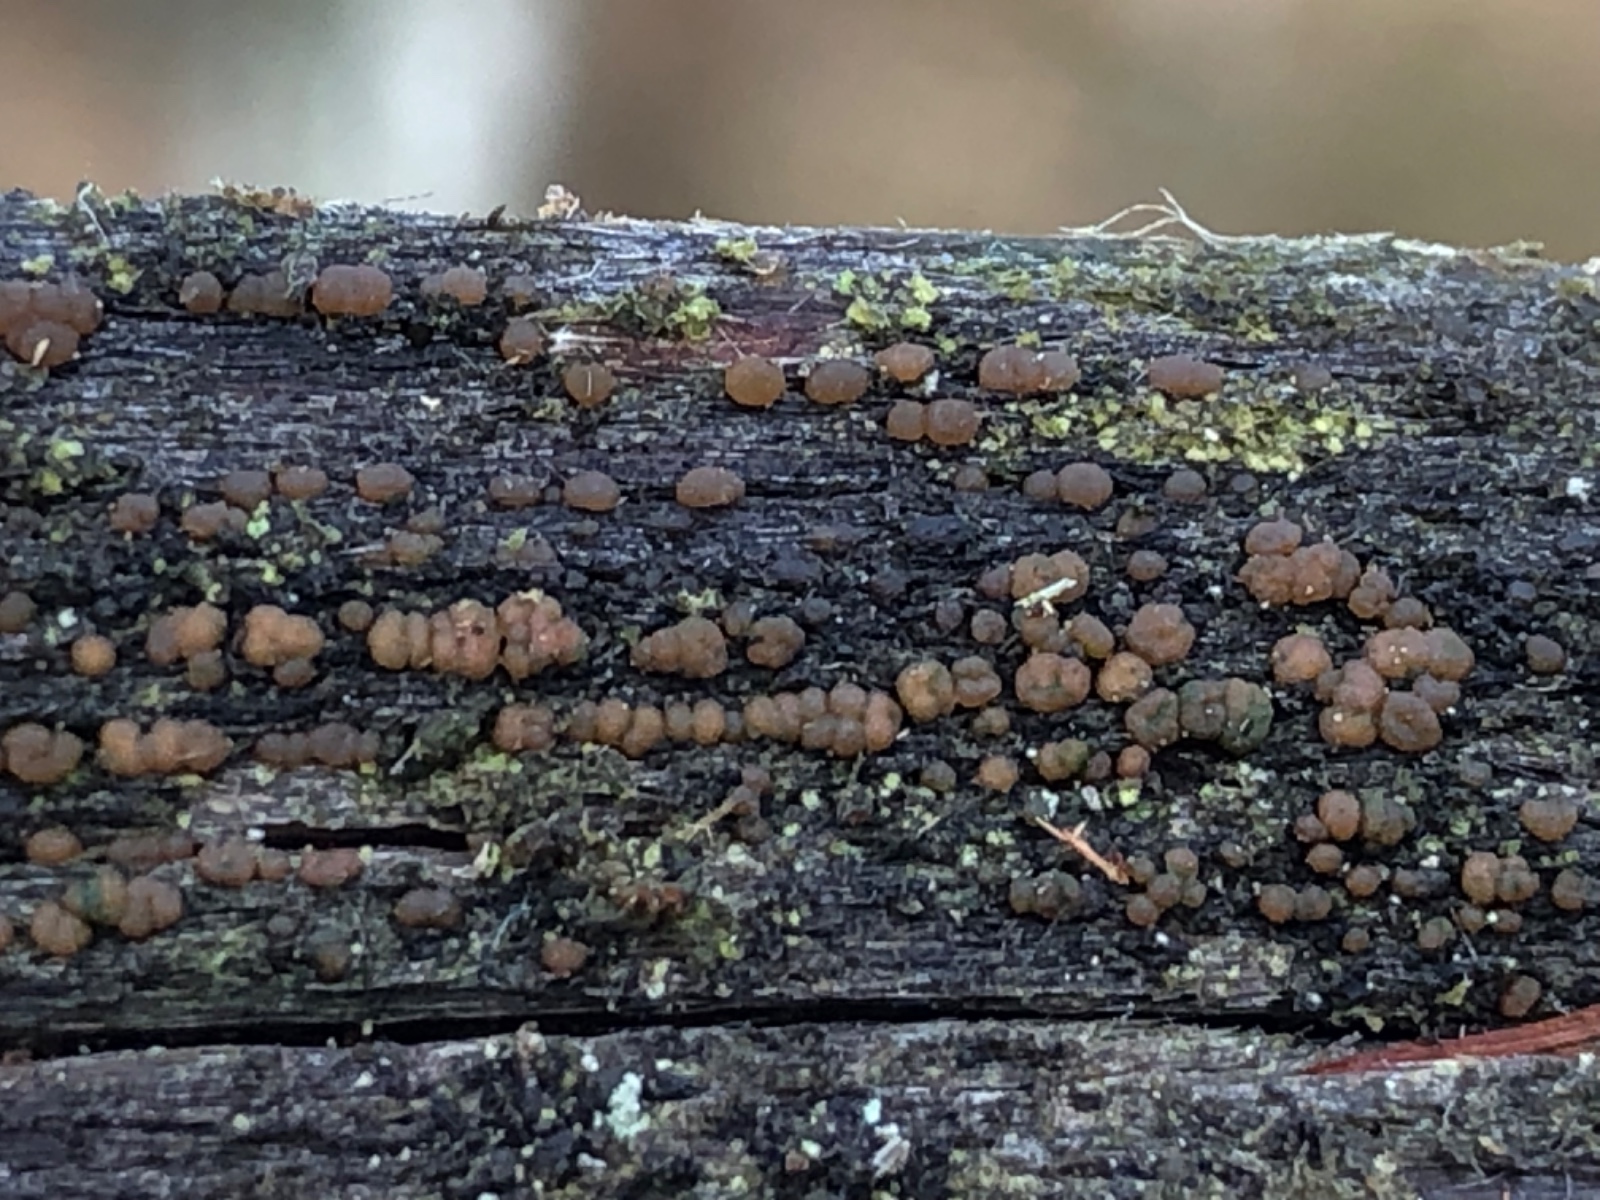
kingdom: Fungi
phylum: Basidiomycota
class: Dacrymycetes
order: Dacrymycetales
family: Dacrymycetaceae
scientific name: Dacrymycetaceae
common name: tåresvampfamilien
